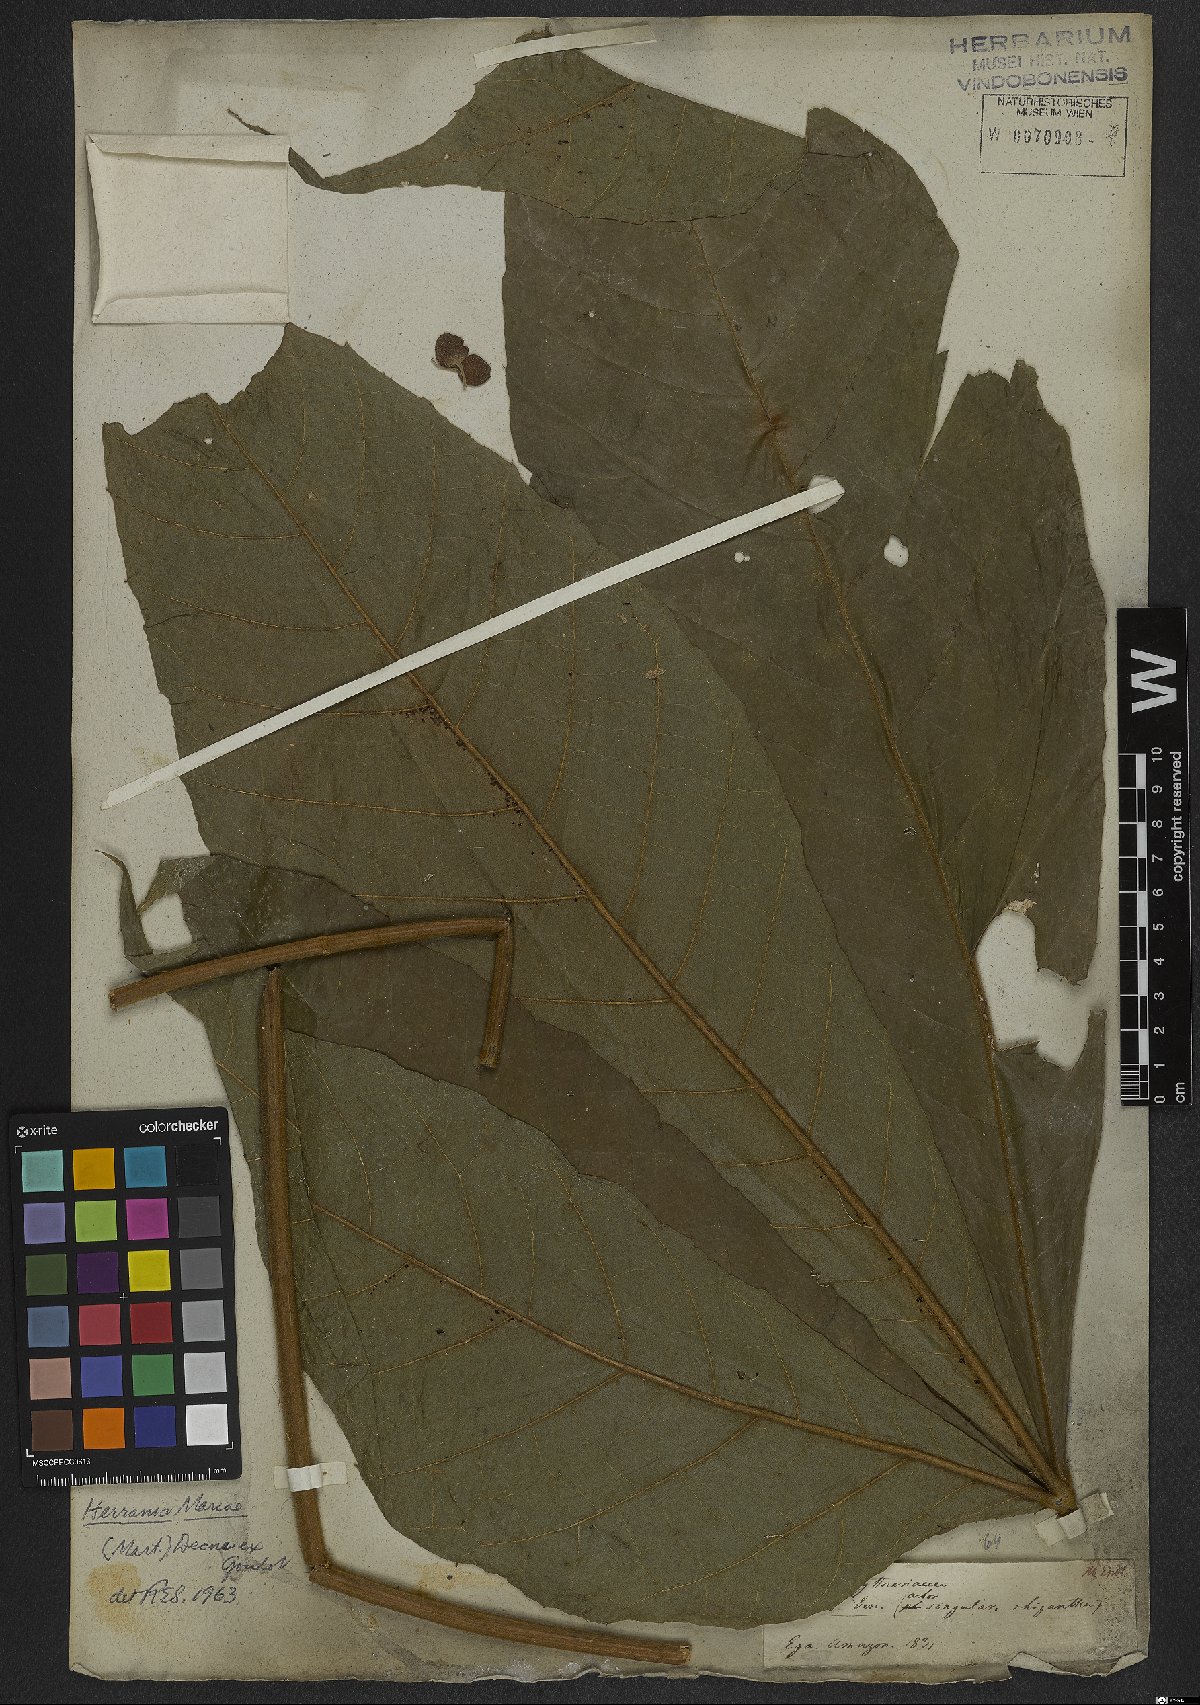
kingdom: Plantae
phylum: Tracheophyta
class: Magnoliopsida
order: Malvales
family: Malvaceae
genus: Herrania
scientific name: Herrania mariae
